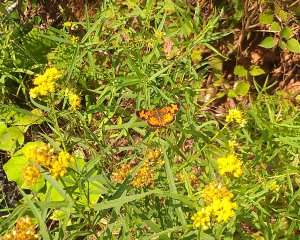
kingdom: Animalia
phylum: Arthropoda
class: Insecta
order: Lepidoptera
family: Nymphalidae
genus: Phyciodes
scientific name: Phyciodes tharos
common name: Northern Crescent
